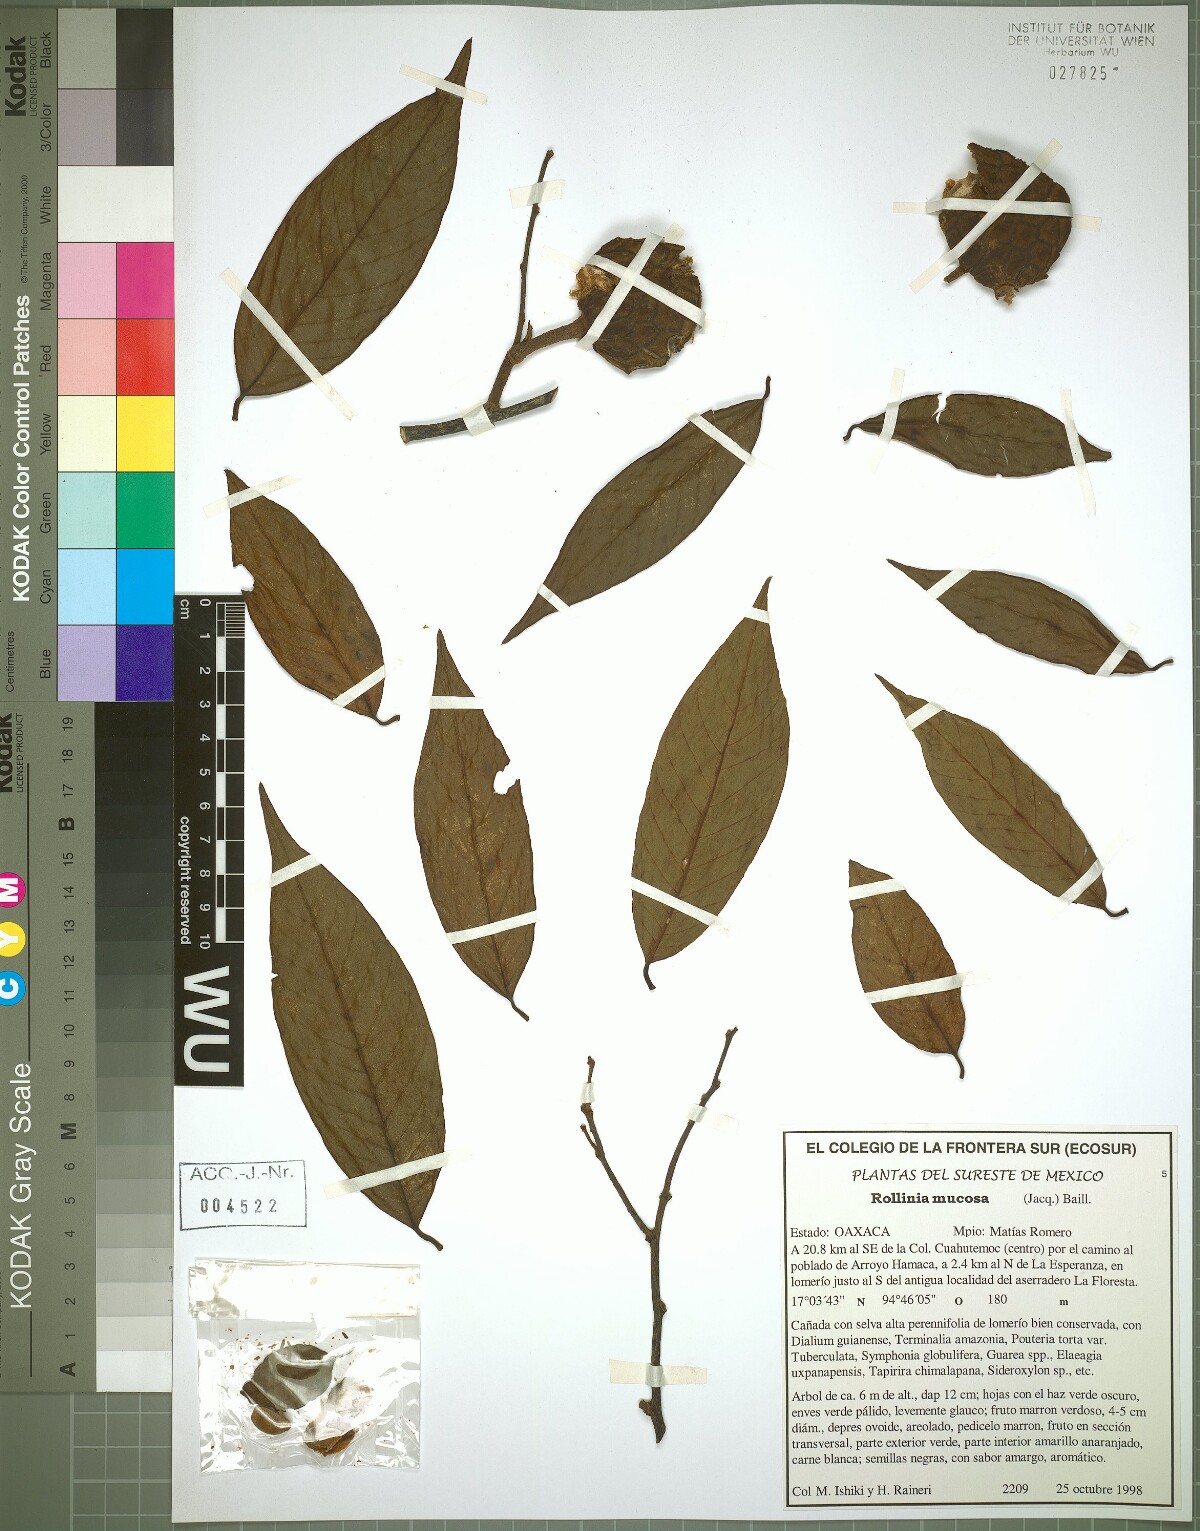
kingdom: Plantae
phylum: Tracheophyta
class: Magnoliopsida
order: Magnoliales
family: Annonaceae
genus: Annona
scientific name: Annona mucosa
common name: Sugar apple
